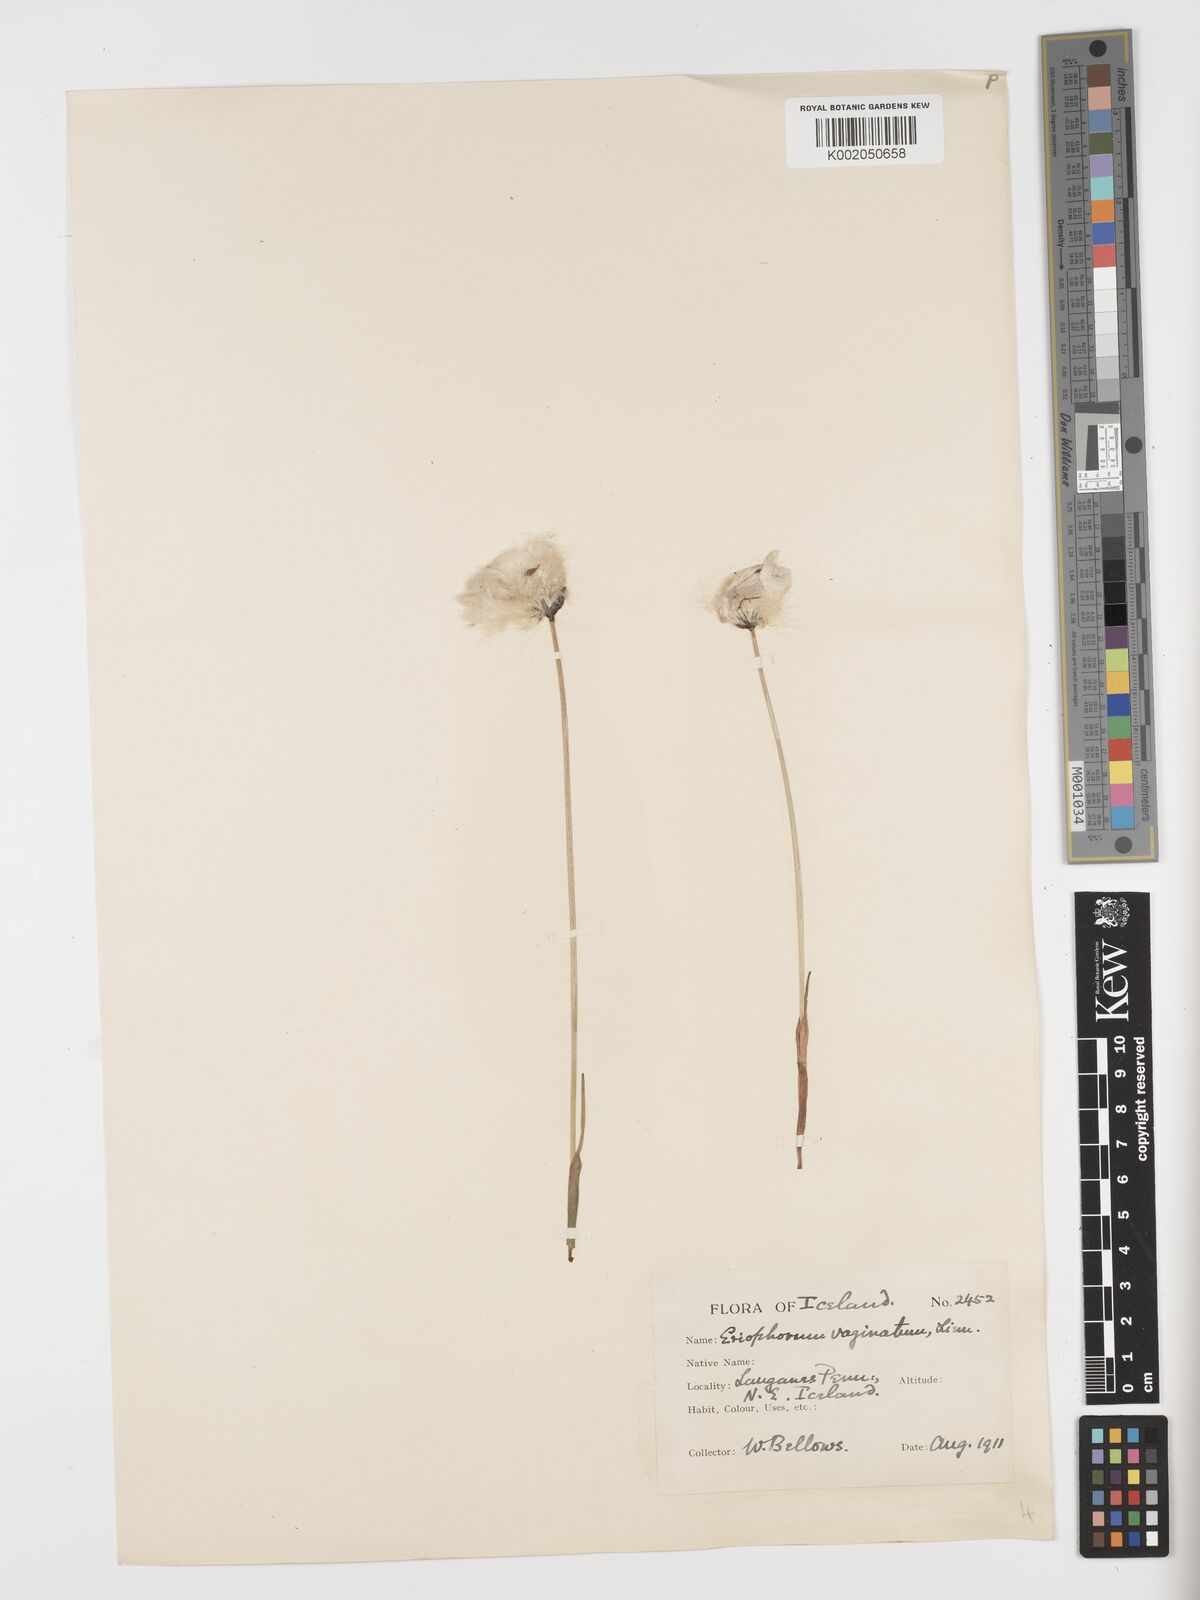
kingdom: Plantae
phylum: Tracheophyta
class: Liliopsida
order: Poales
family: Cyperaceae
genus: Eriophorum
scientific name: Eriophorum vaginatum
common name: Hare's-tail cottongrass
